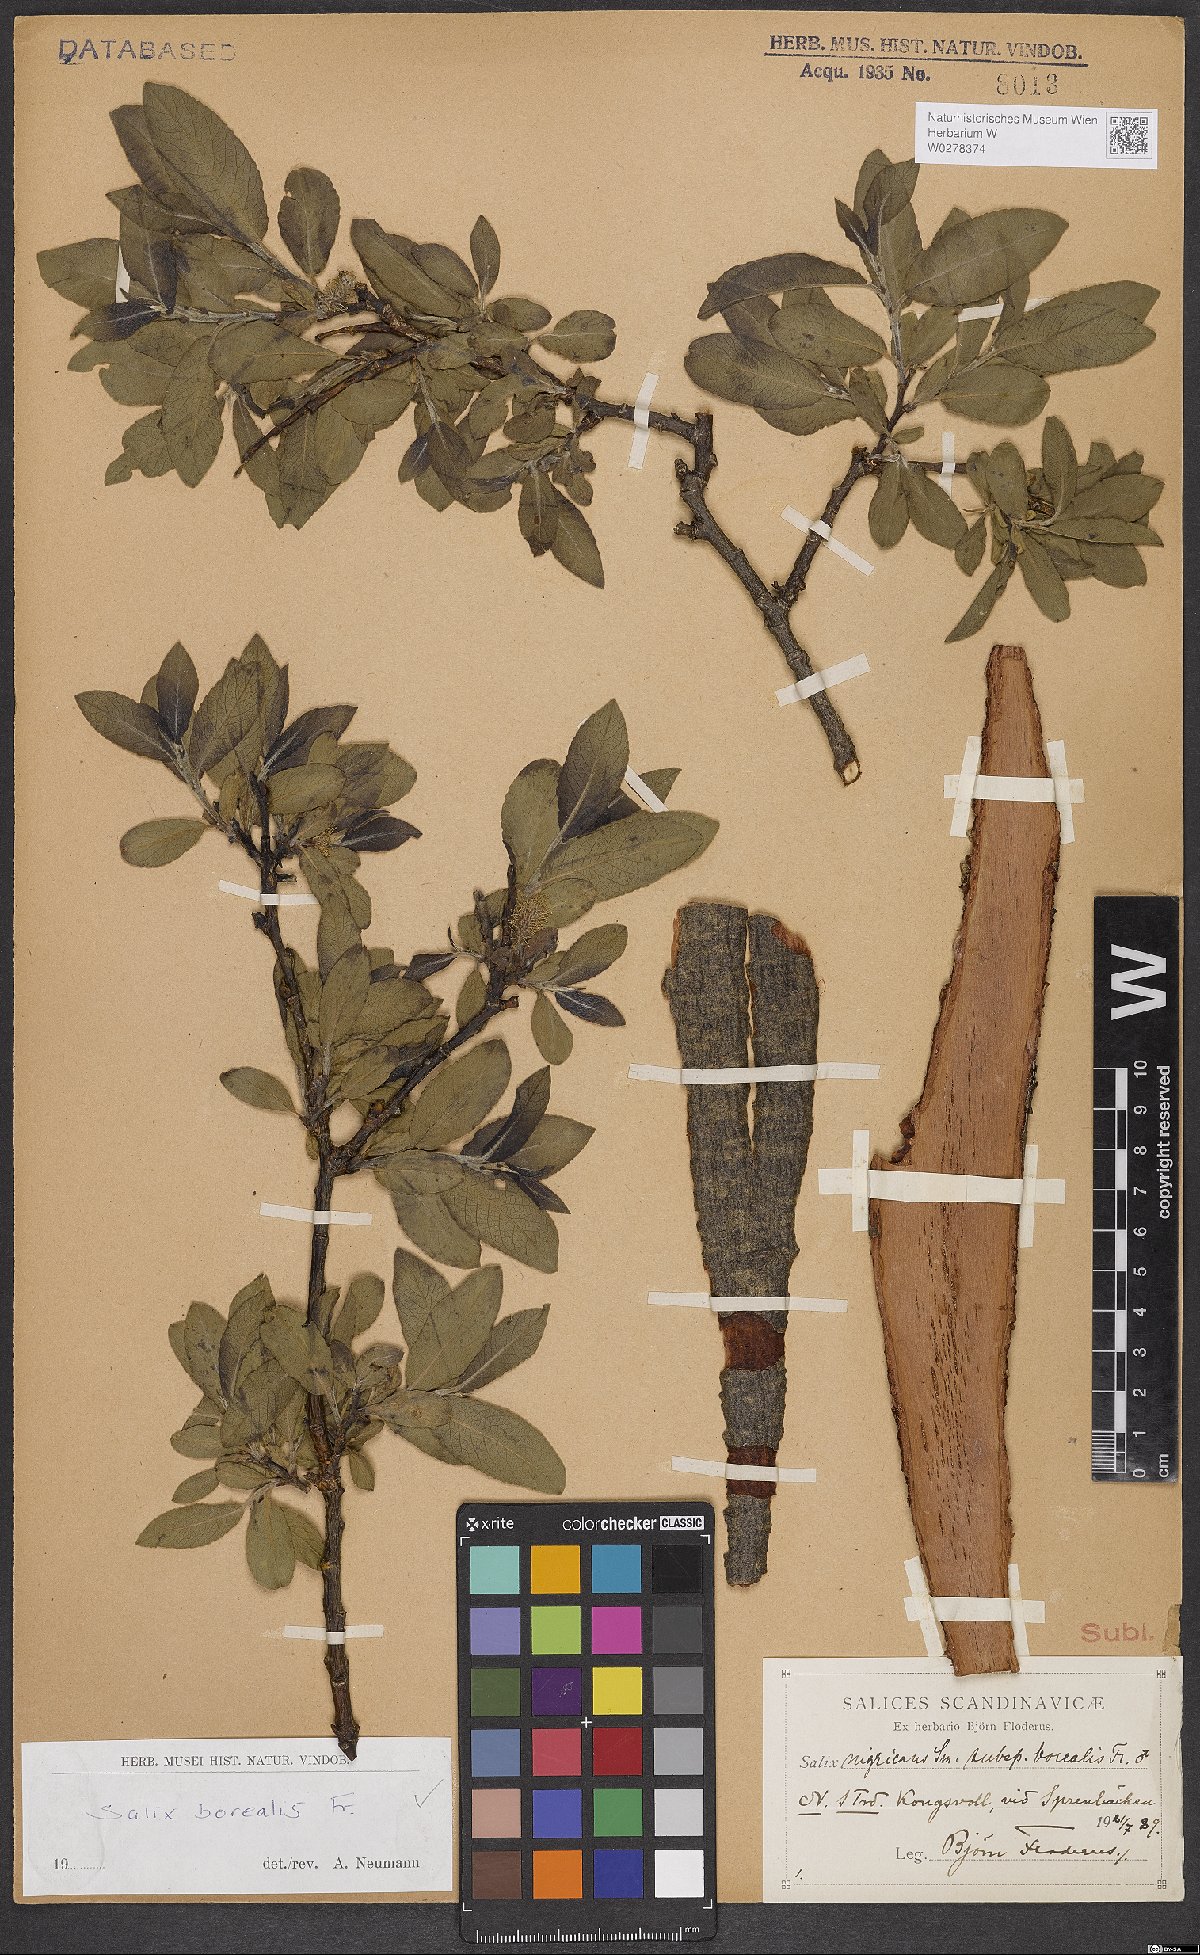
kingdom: Plantae
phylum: Tracheophyta
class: Magnoliopsida
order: Malpighiales
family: Salicaceae
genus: Salix
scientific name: Salix myrsinifolia
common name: Dark-leaved willow
